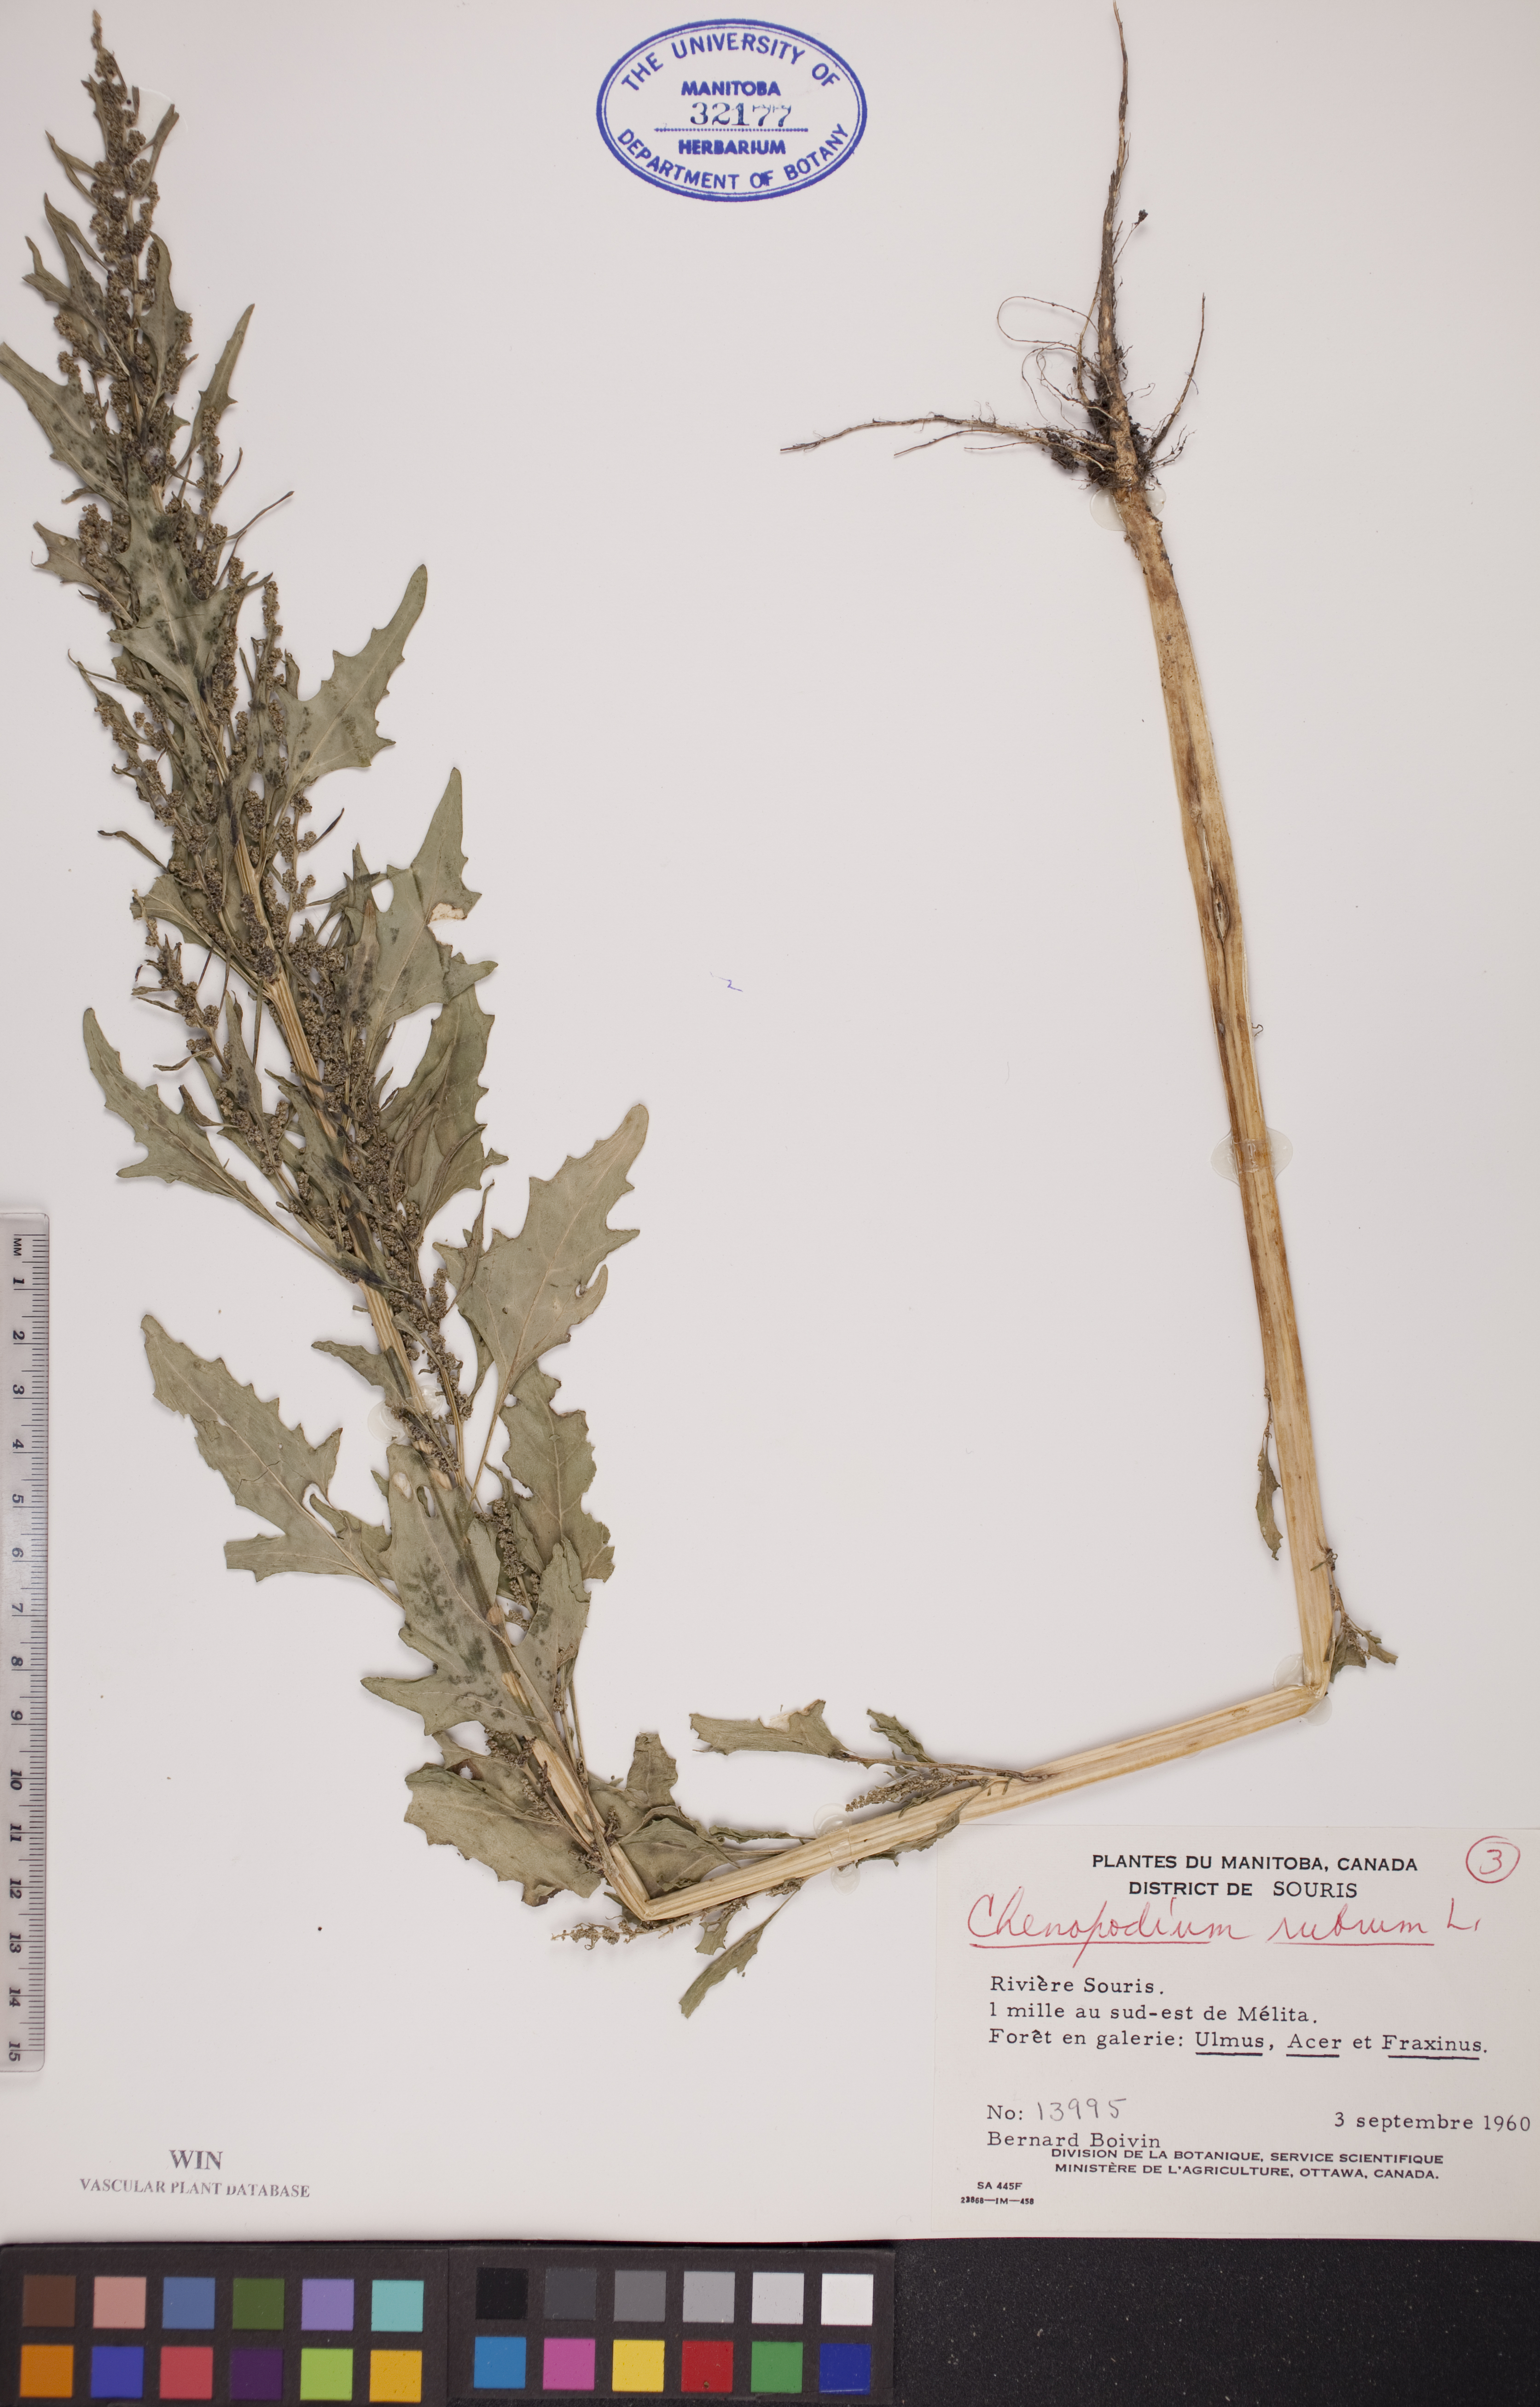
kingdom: Plantae
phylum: Tracheophyta
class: Magnoliopsida
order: Caryophyllales
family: Amaranthaceae
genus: Oxybasis
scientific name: Oxybasis rubra
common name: Red goosefoot
